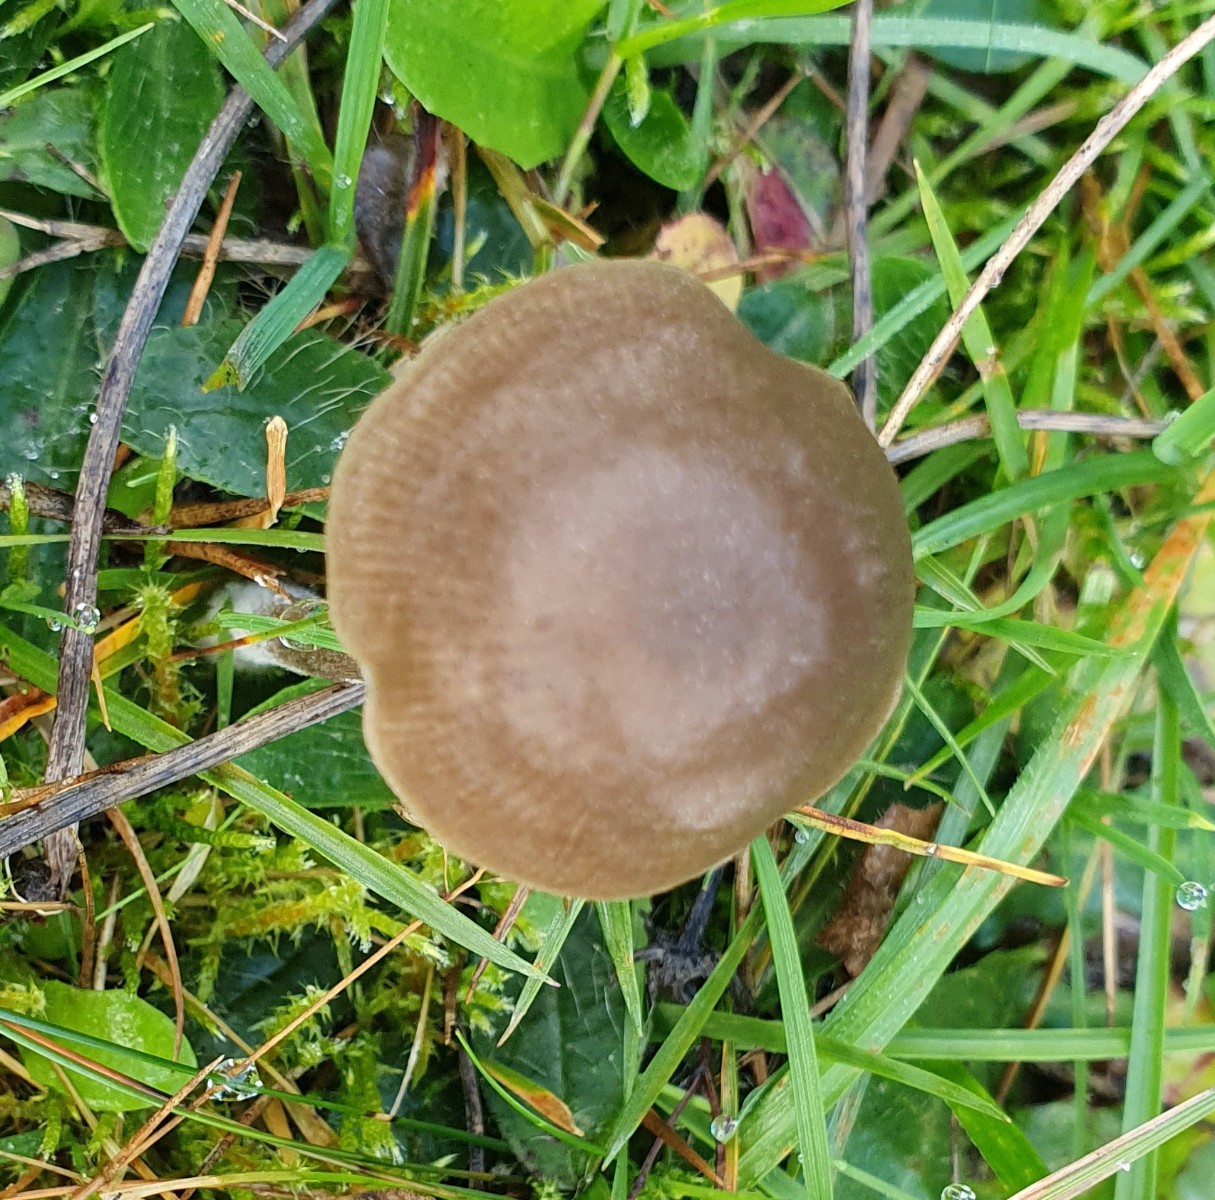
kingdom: Fungi
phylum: Basidiomycota
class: Agaricomycetes
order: Agaricales
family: Entolomataceae
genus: Entoloma
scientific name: Entoloma
